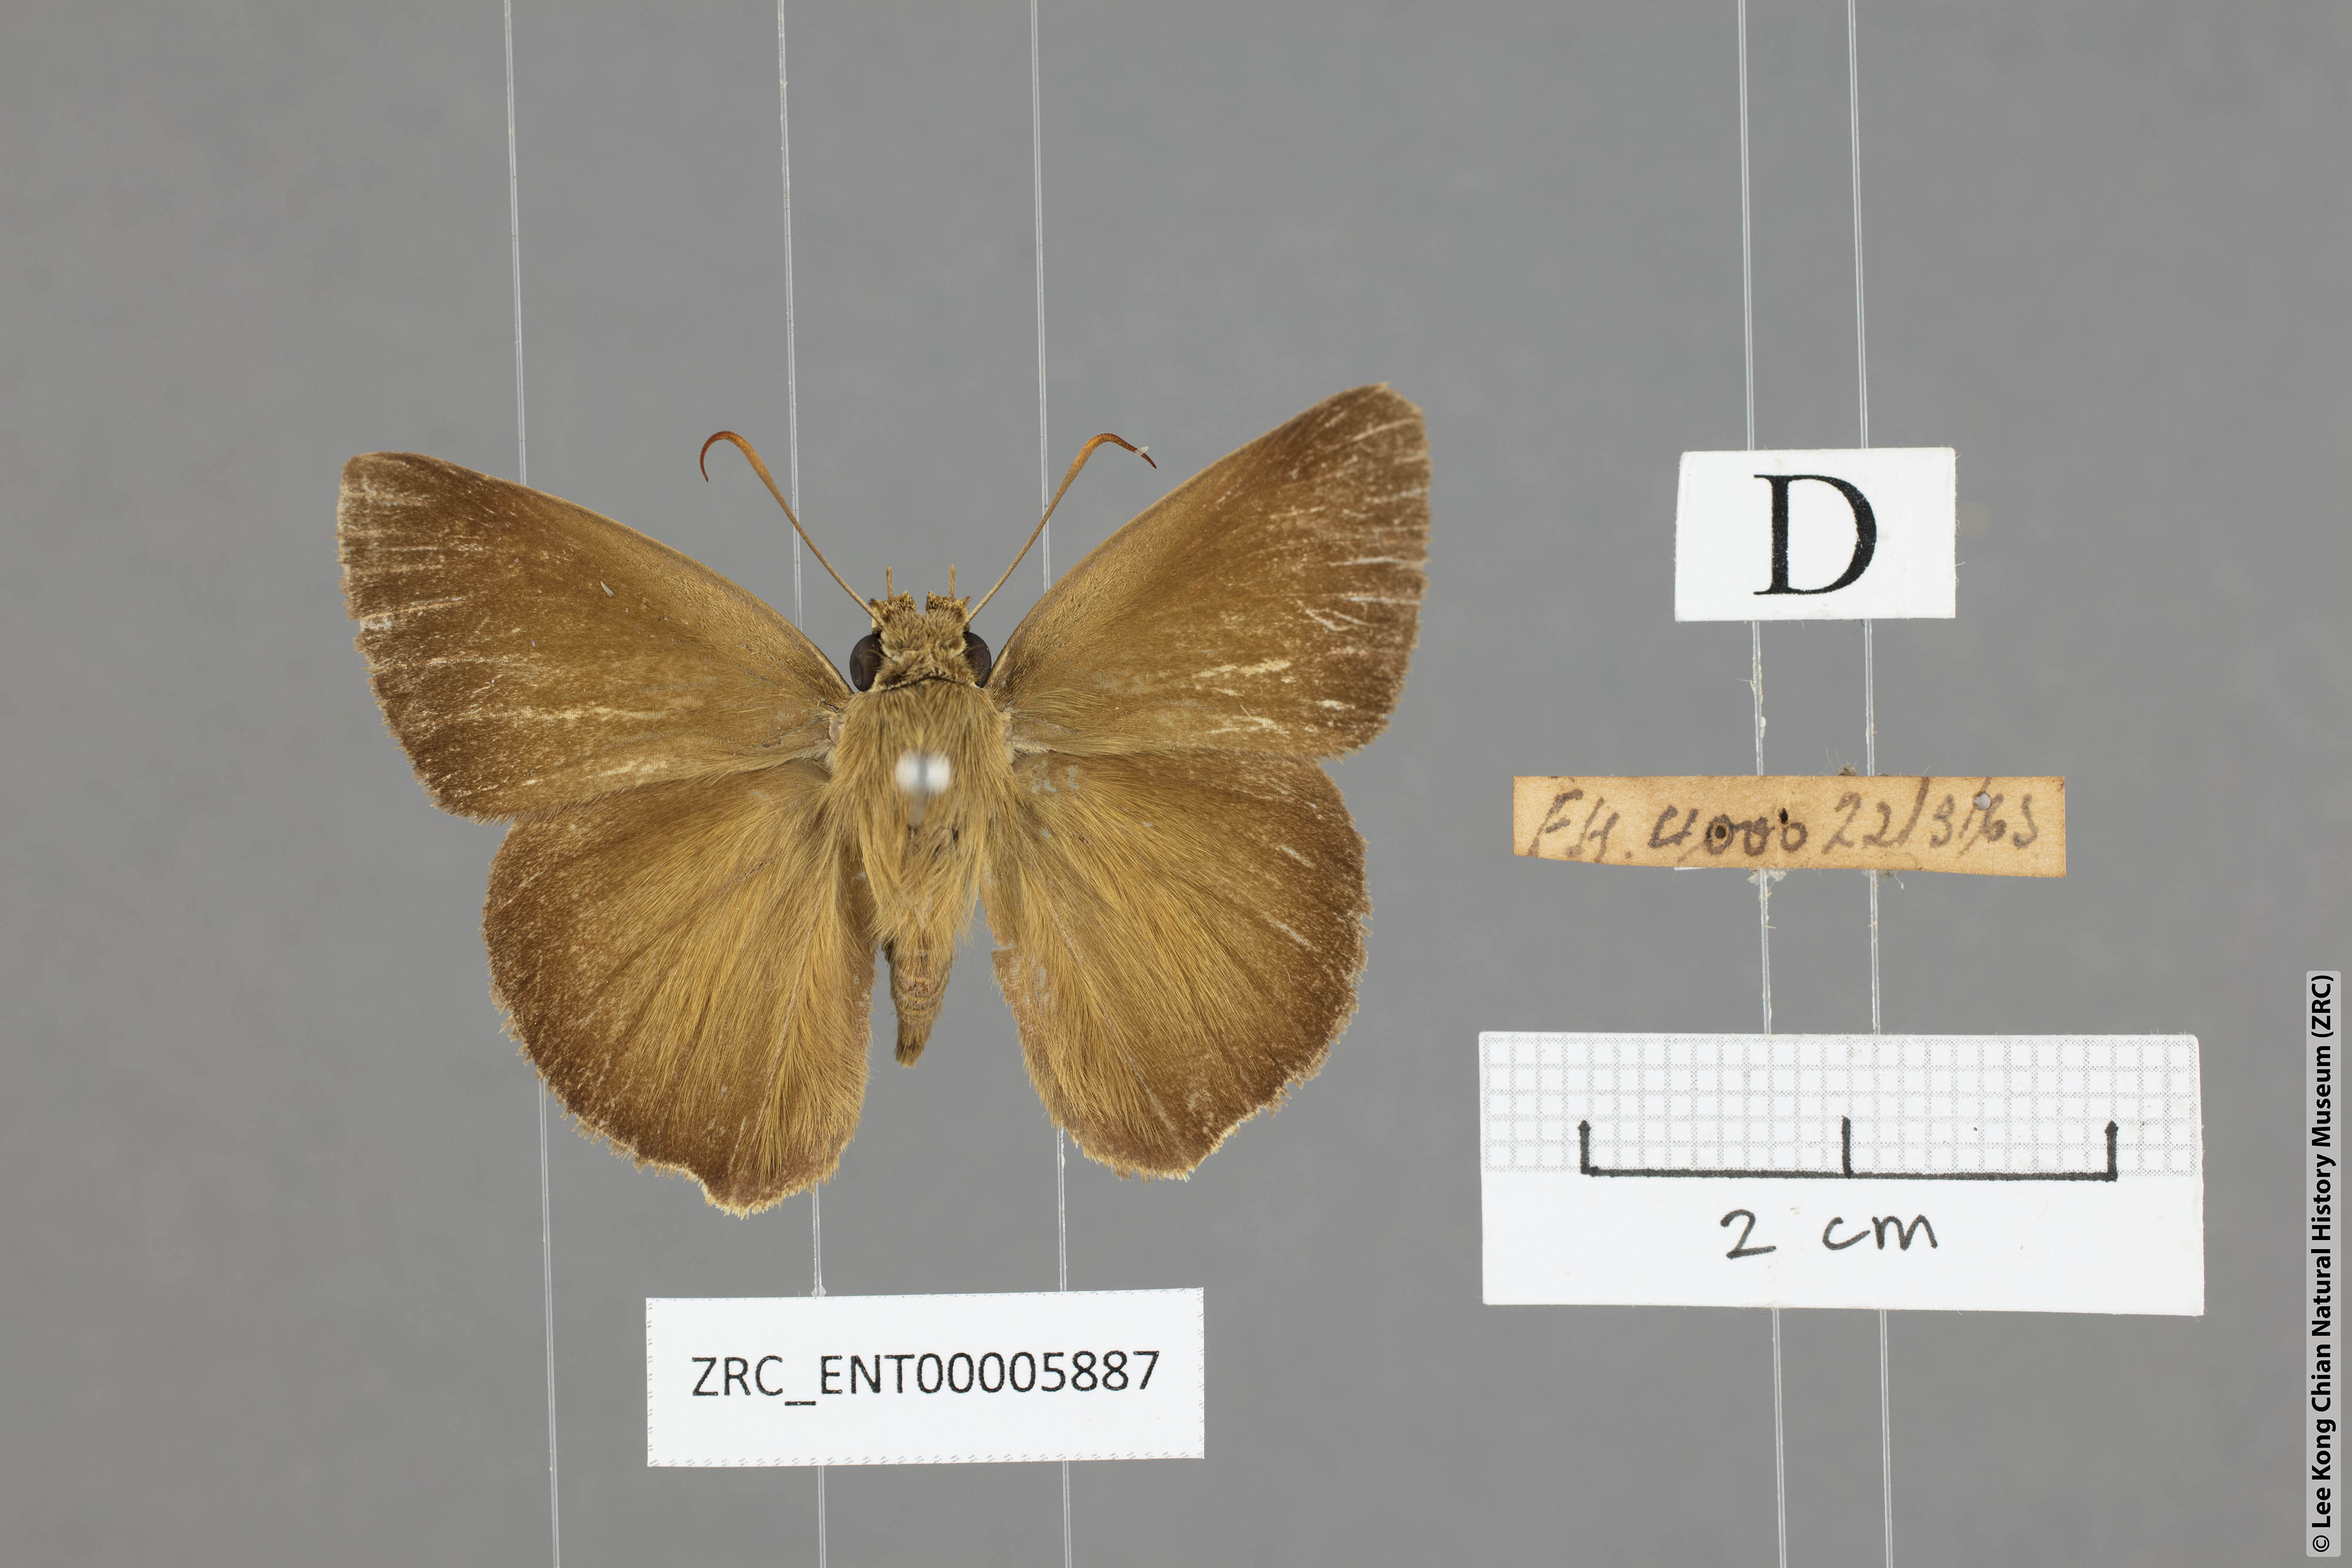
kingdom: Animalia
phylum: Arthropoda
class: Insecta
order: Lepidoptera
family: Hesperiidae
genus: Hasora
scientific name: Hasora myra
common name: Pale-tailed awl
